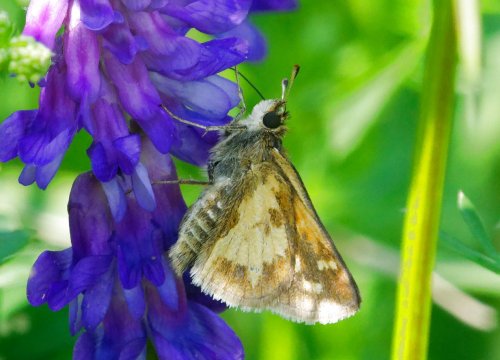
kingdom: Animalia
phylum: Arthropoda
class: Insecta
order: Lepidoptera
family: Hesperiidae
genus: Polites
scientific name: Polites coras
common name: Peck's Skipper
